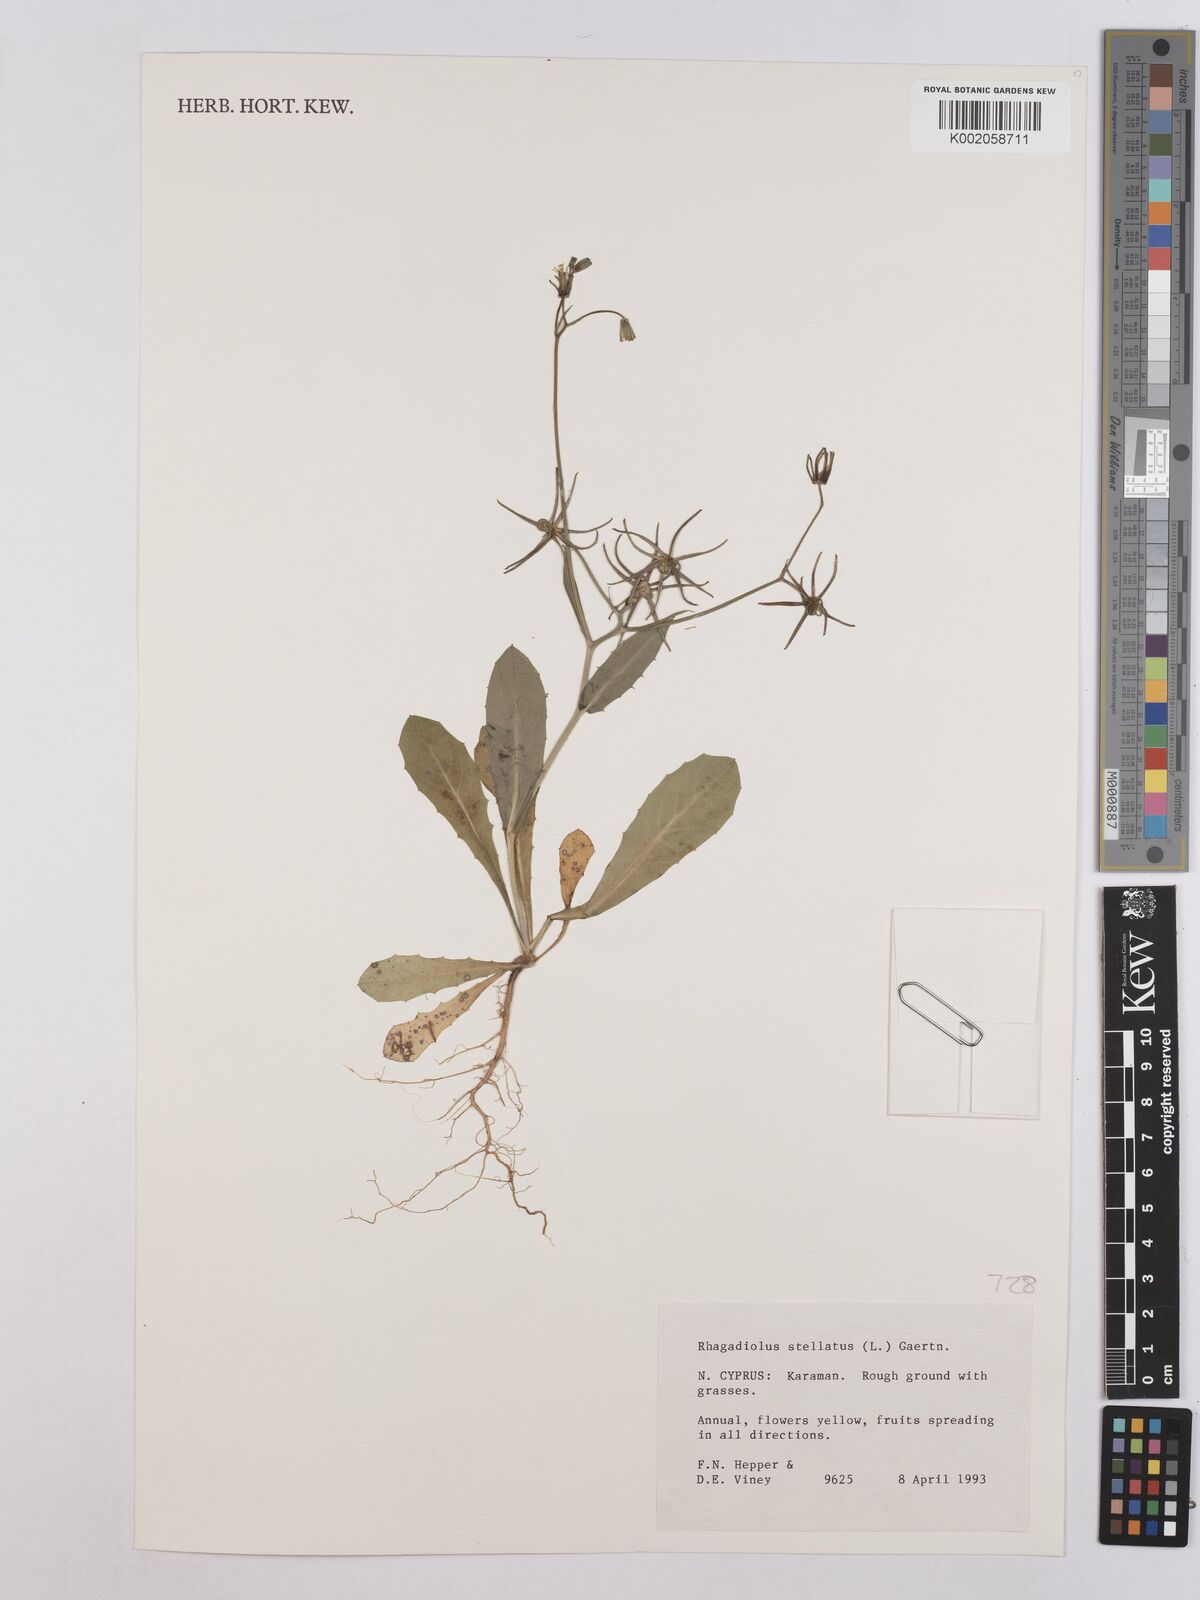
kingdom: Plantae
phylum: Tracheophyta
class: Magnoliopsida
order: Asterales
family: Asteraceae
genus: Rhagadiolus
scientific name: Rhagadiolus stellatus
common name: Star hawkbit
